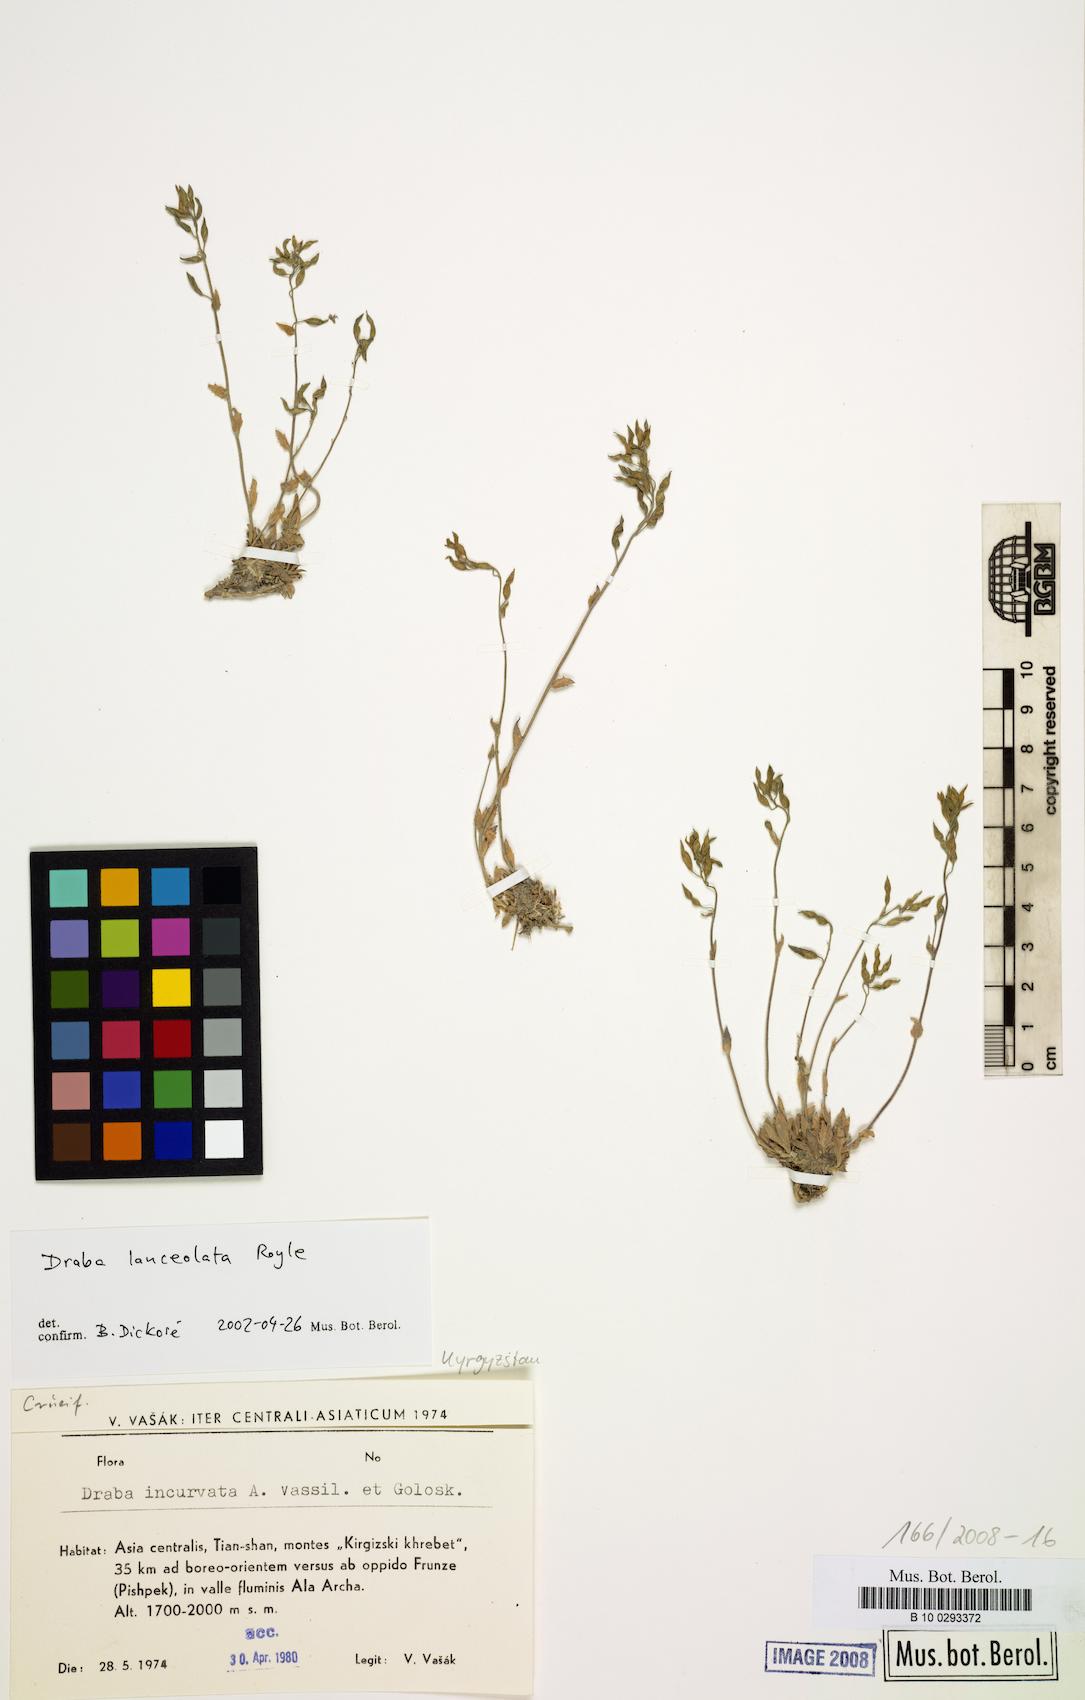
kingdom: Plantae
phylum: Tracheophyta
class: Magnoliopsida
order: Brassicales
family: Brassicaceae
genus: Draba
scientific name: Draba lanceolata
